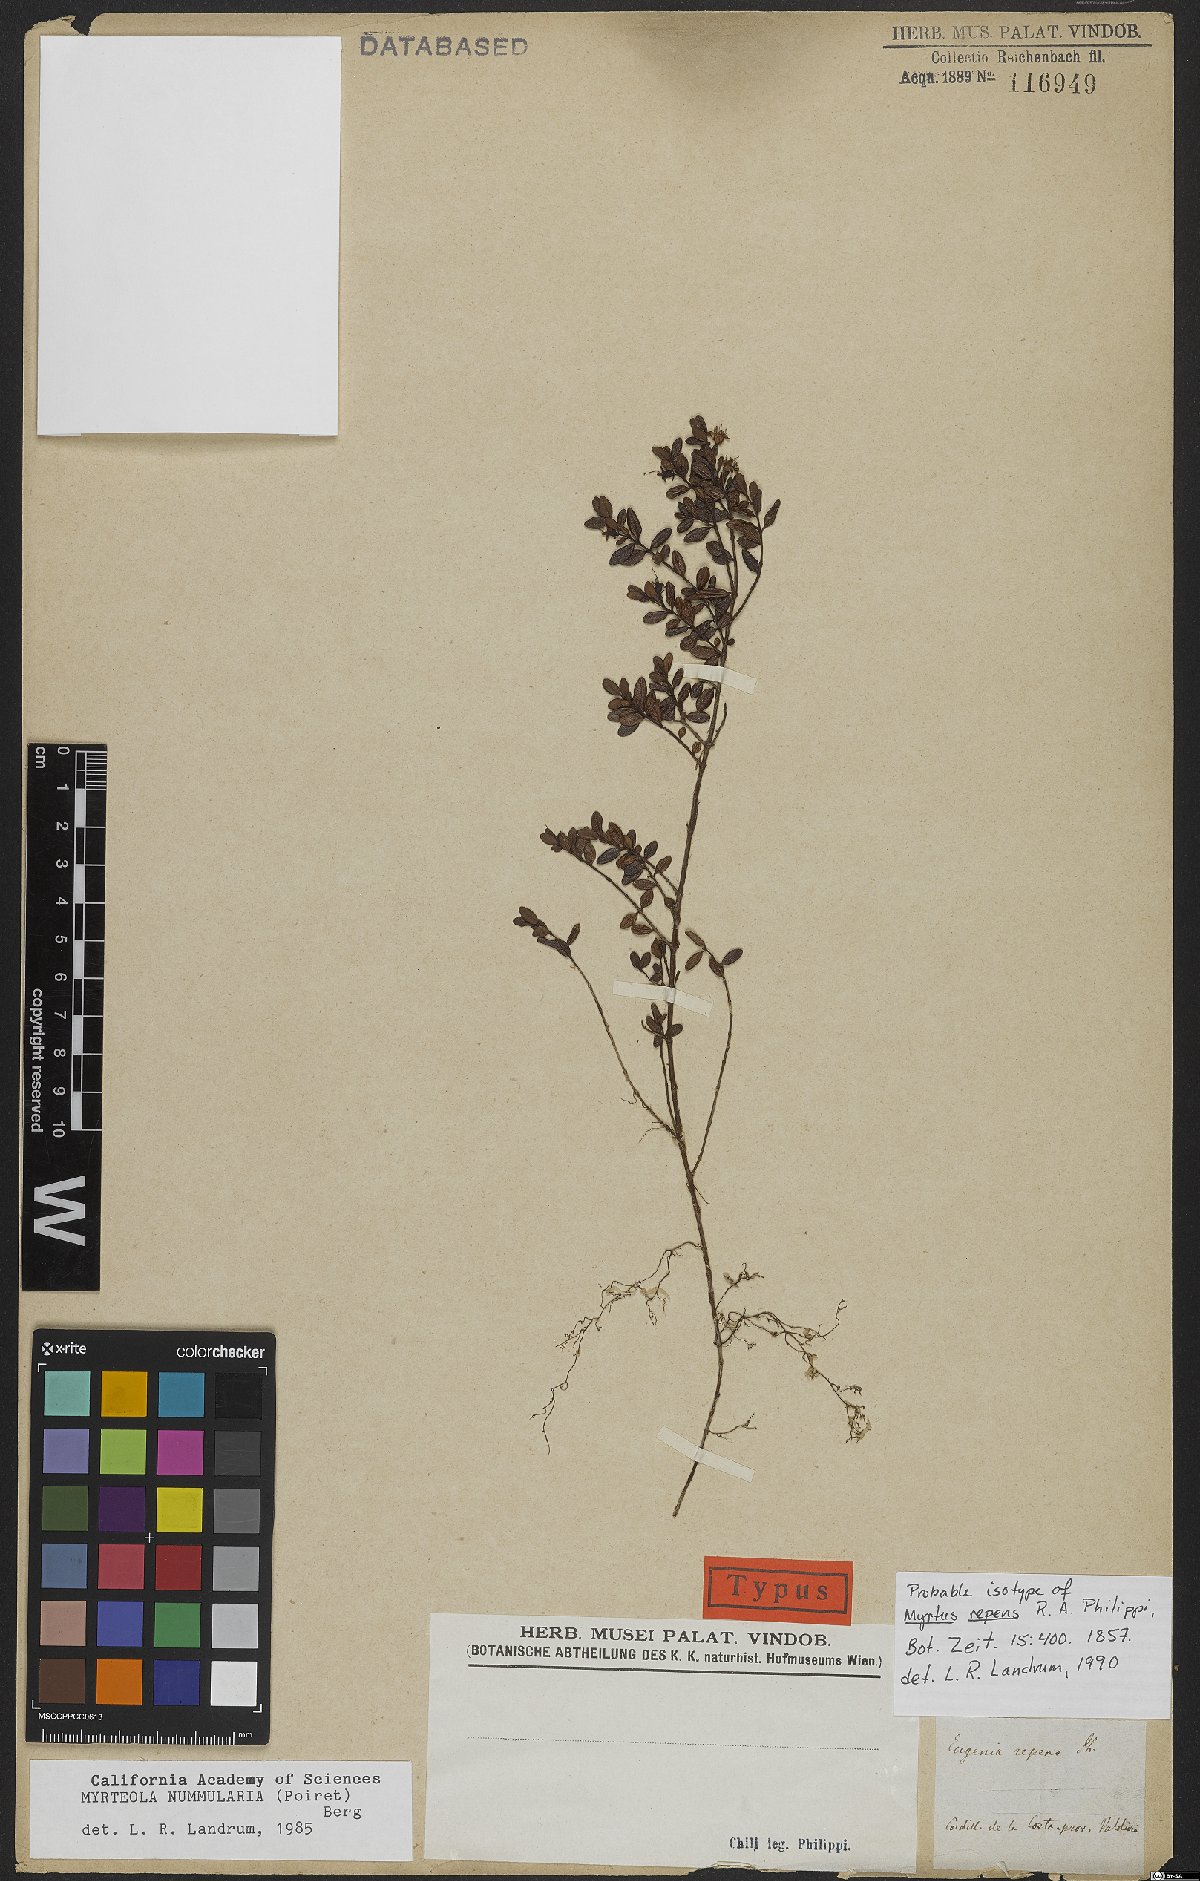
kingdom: Plantae
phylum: Tracheophyta
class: Magnoliopsida
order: Myrtales
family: Myrtaceae
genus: Myrteola
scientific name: Myrteola nummularia
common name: Cranberry-myrtle
